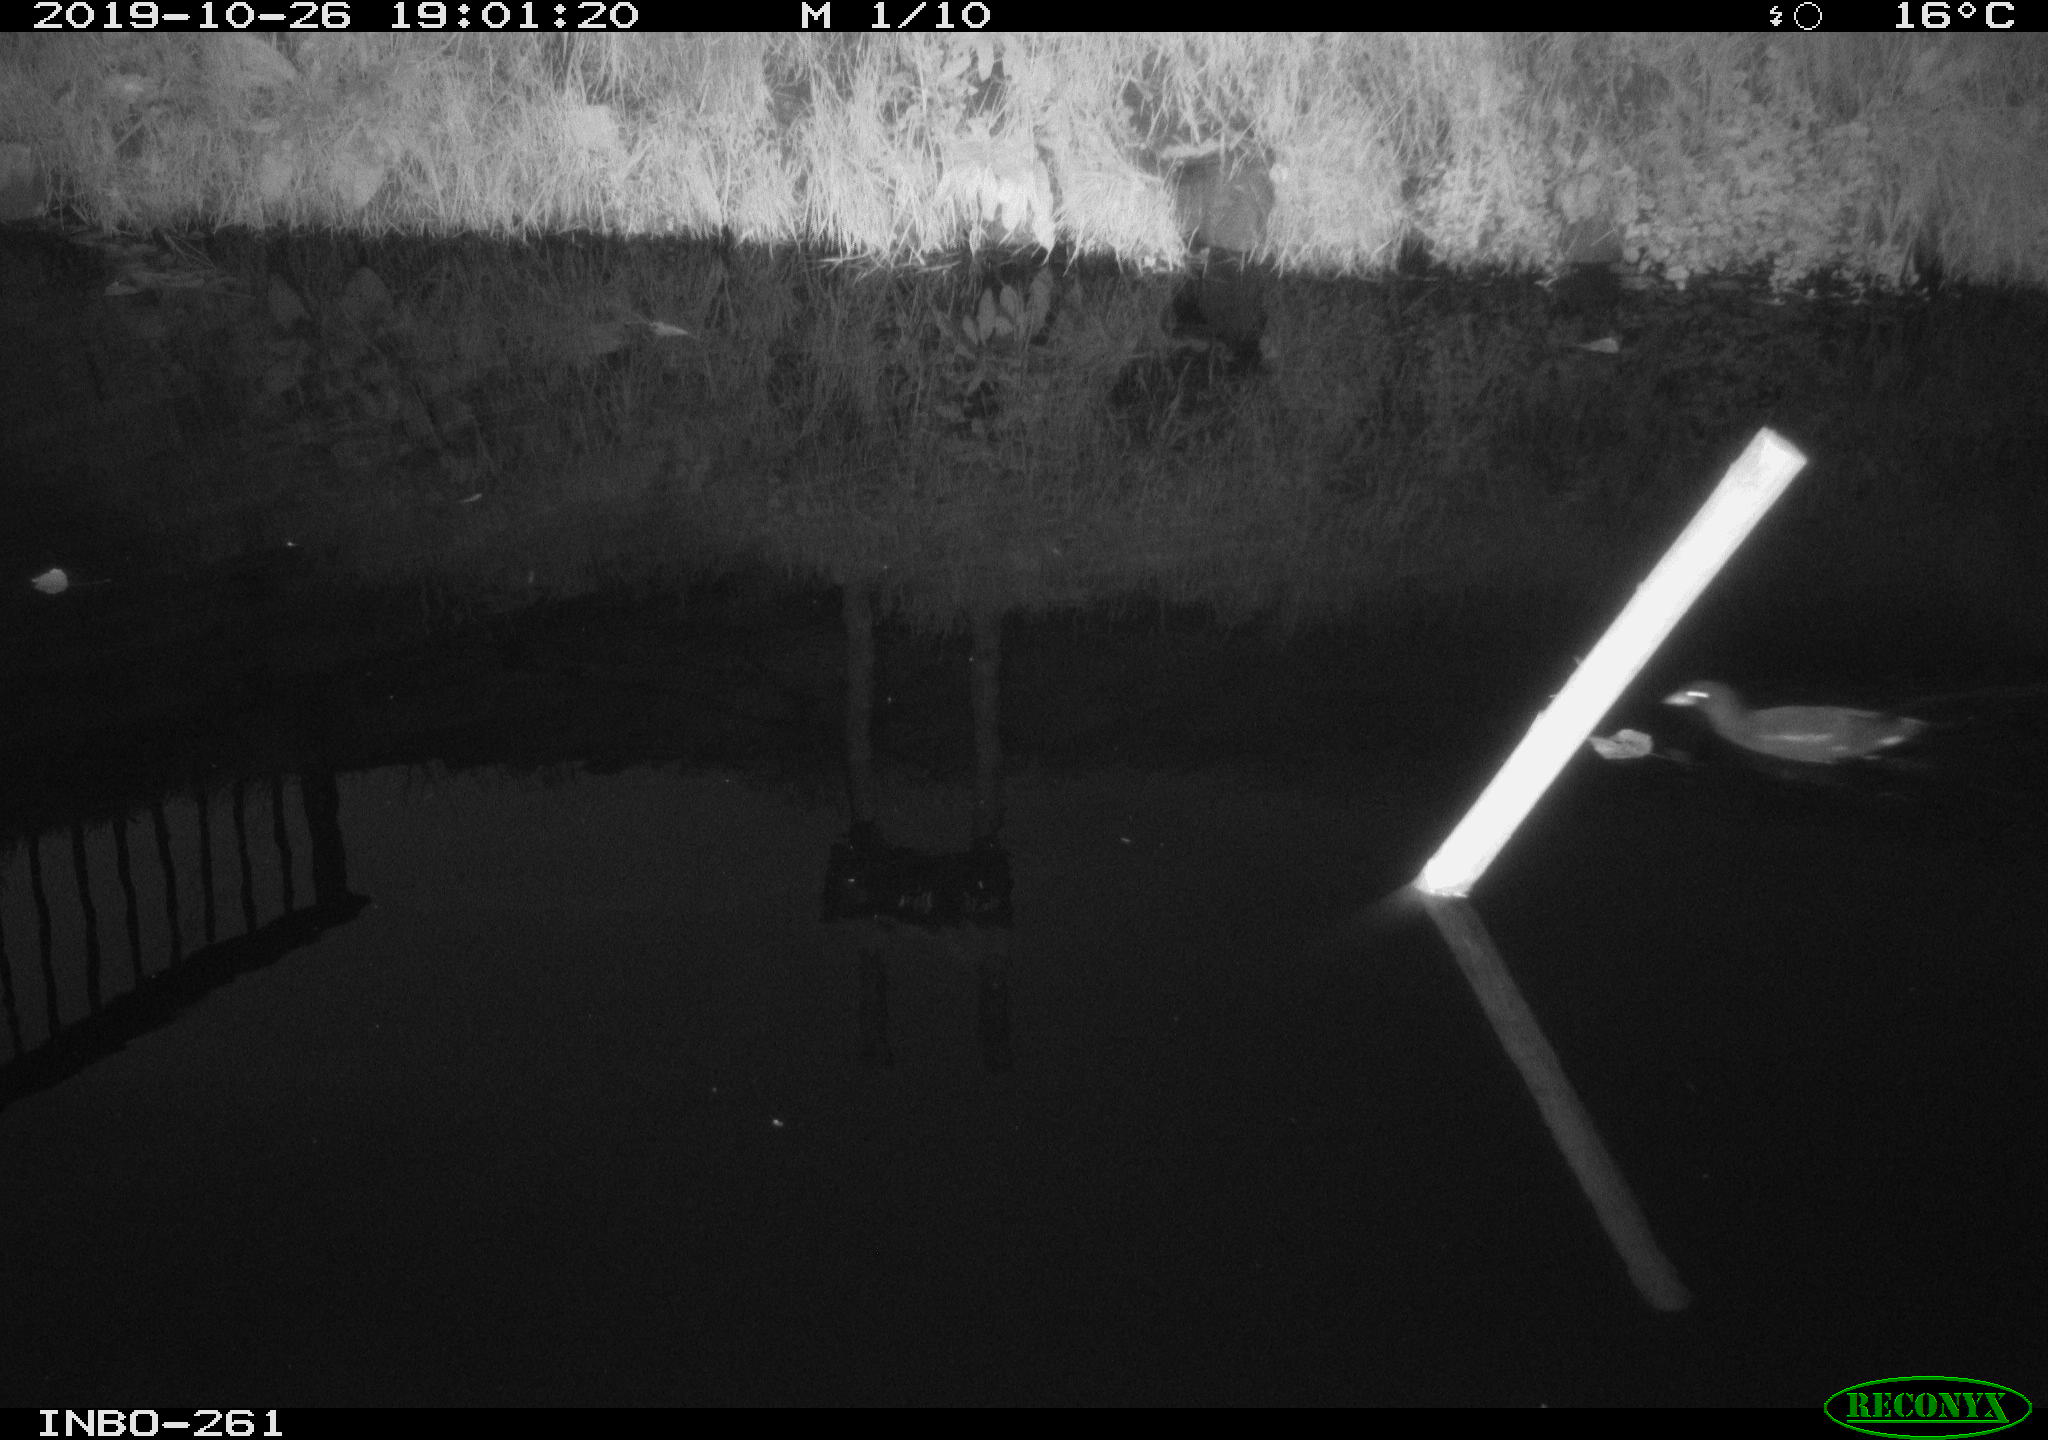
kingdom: Animalia
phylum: Chordata
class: Aves
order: Gruiformes
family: Rallidae
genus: Gallinula
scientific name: Gallinula chloropus
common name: Common moorhen
